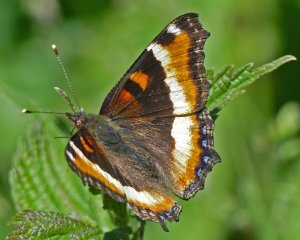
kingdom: Animalia
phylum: Arthropoda
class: Insecta
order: Lepidoptera
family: Nymphalidae
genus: Aglais
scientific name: Aglais milberti
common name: Milbert's Tortoiseshell
